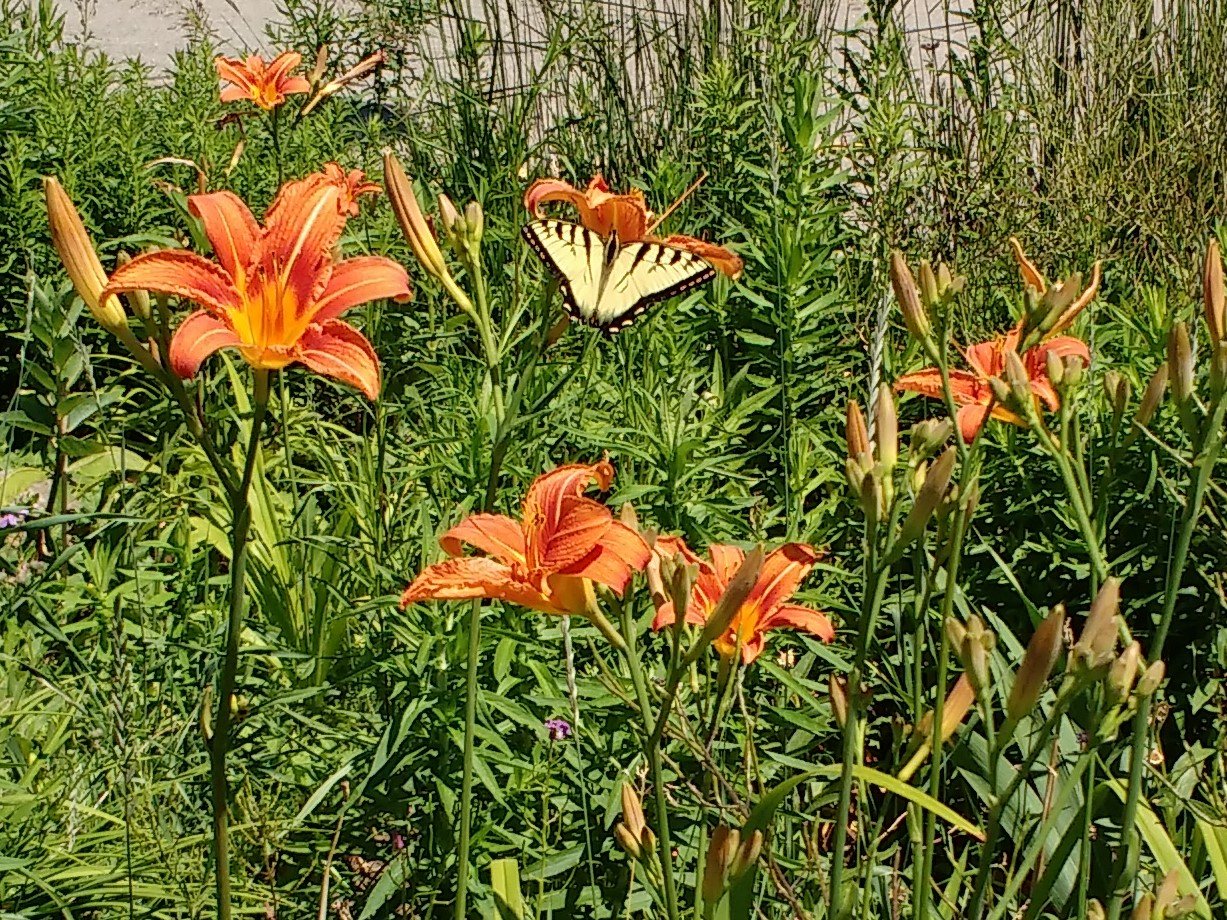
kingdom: Animalia
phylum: Arthropoda
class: Insecta
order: Lepidoptera
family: Papilionidae
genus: Pterourus
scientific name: Pterourus glaucus
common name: Eastern Tiger Swallowtail
